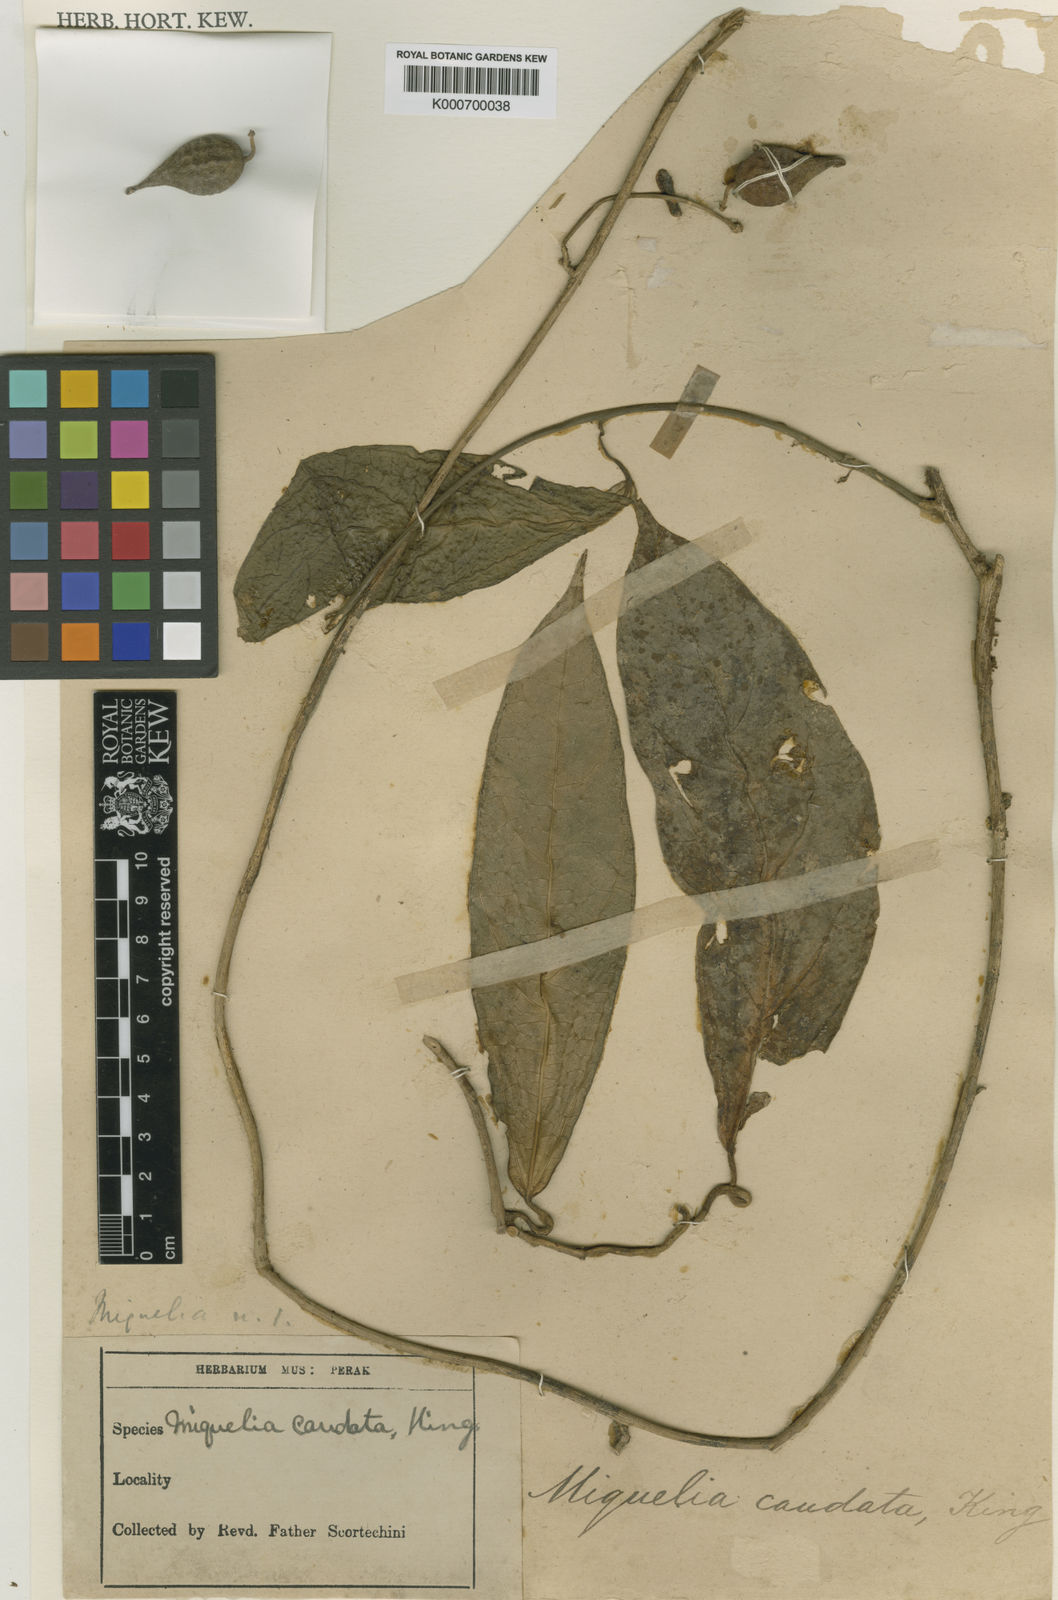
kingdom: Plantae
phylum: Tracheophyta
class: Magnoliopsida
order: Icacinales
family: Icacinaceae
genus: Miquelia
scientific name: Miquelia caudata
